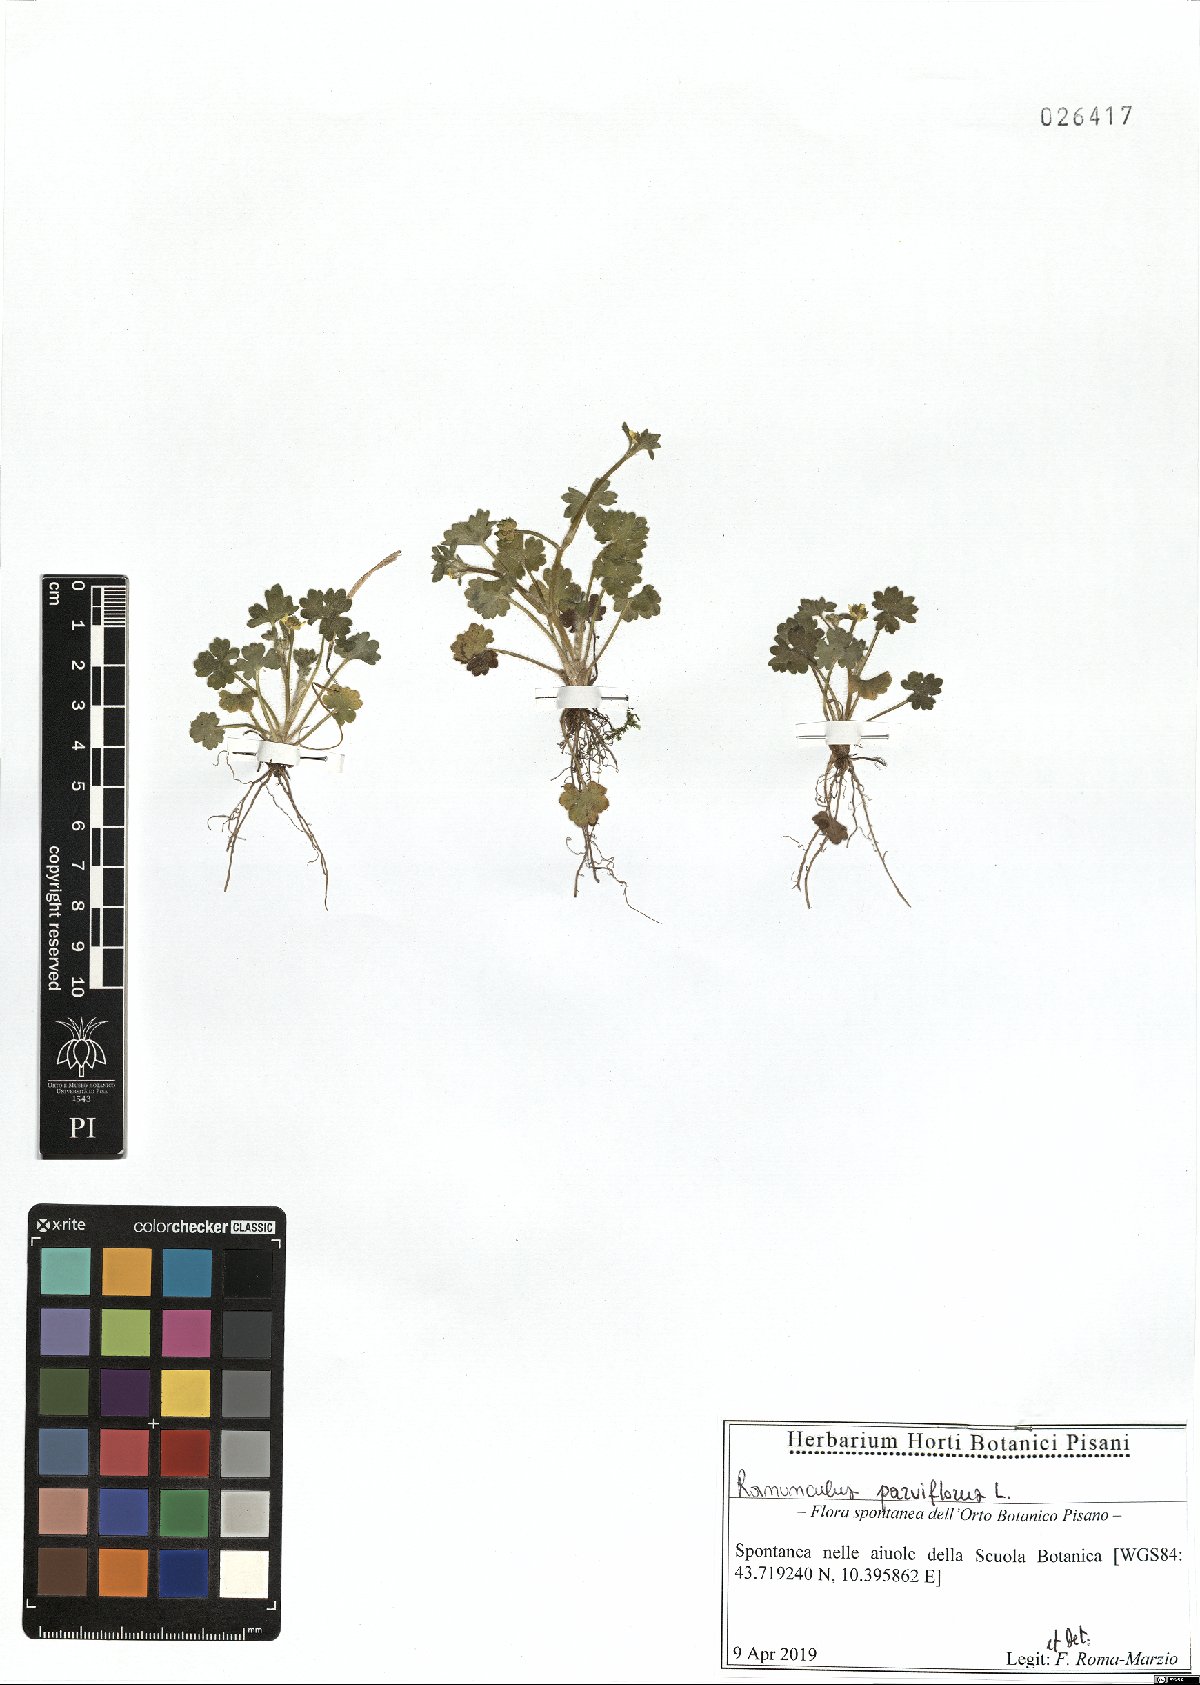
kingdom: Plantae
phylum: Tracheophyta
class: Magnoliopsida
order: Ranunculales
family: Ranunculaceae
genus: Ranunculus
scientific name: Ranunculus parviflorus
